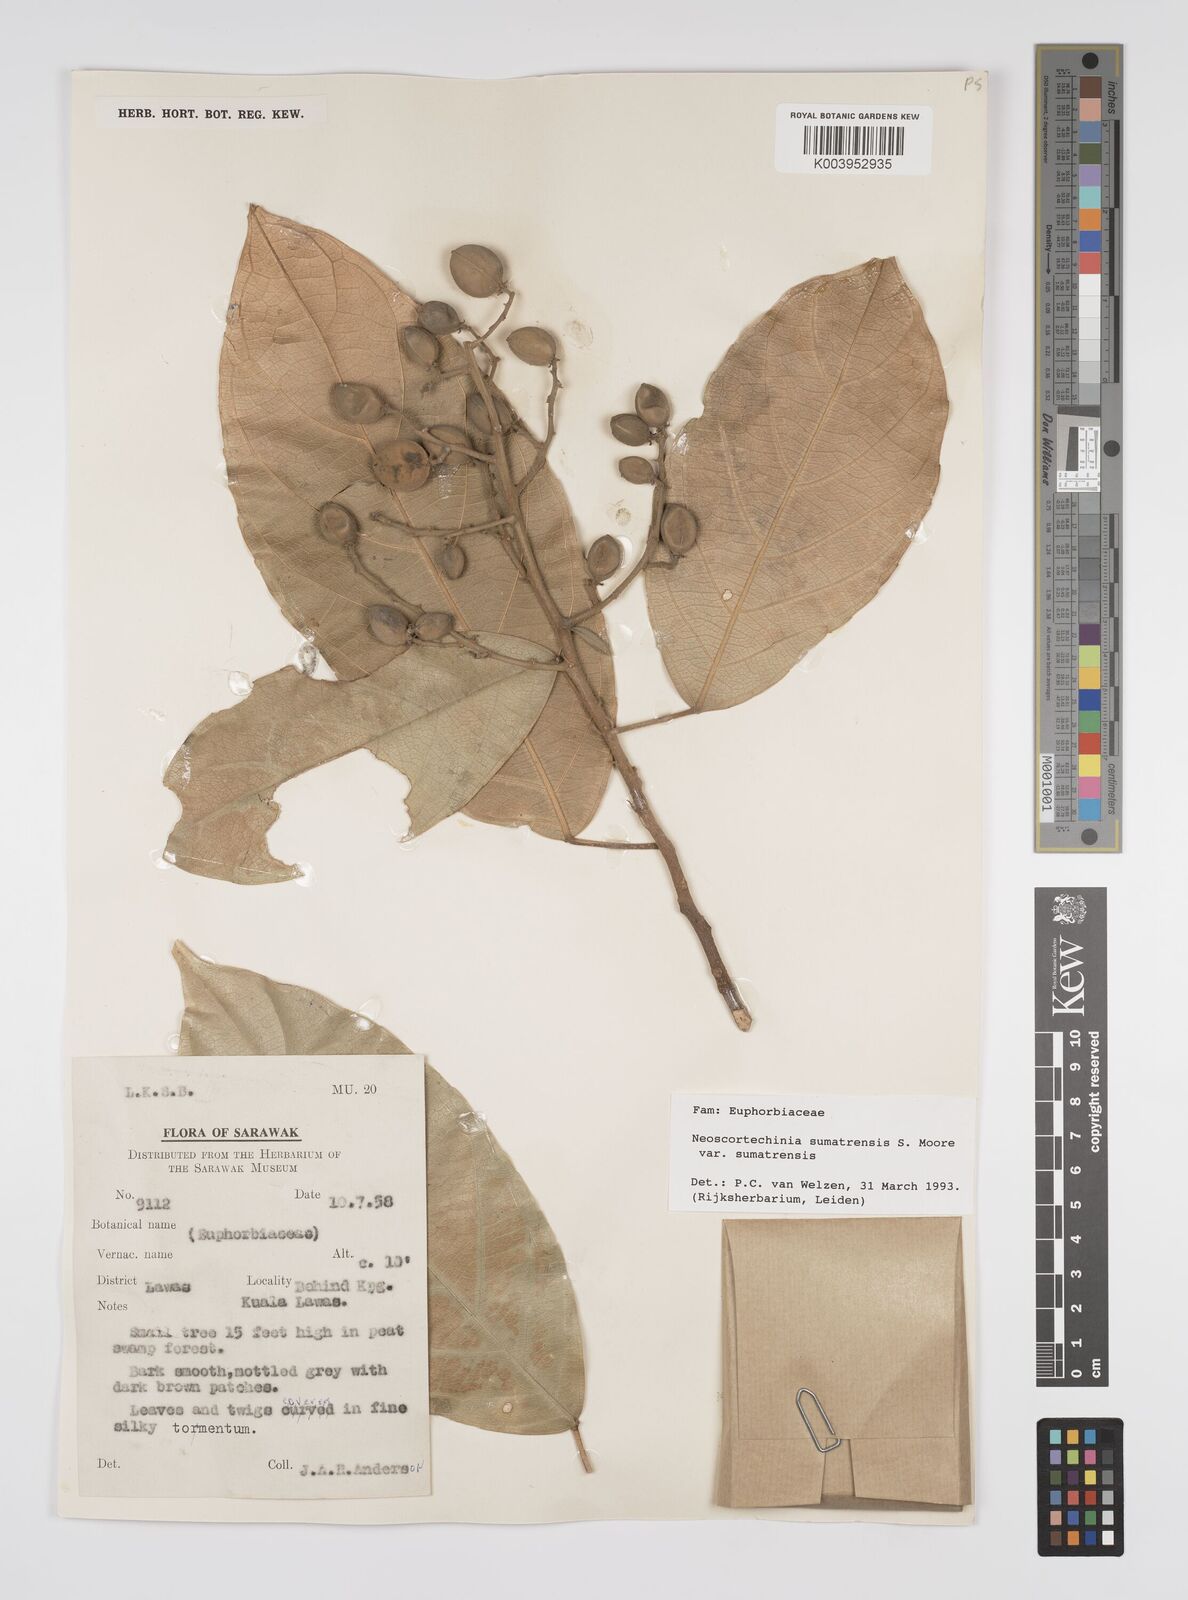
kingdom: Plantae
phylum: Tracheophyta
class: Magnoliopsida
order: Malpighiales
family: Euphorbiaceae
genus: Neoscortechinia
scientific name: Neoscortechinia sumatrensis
